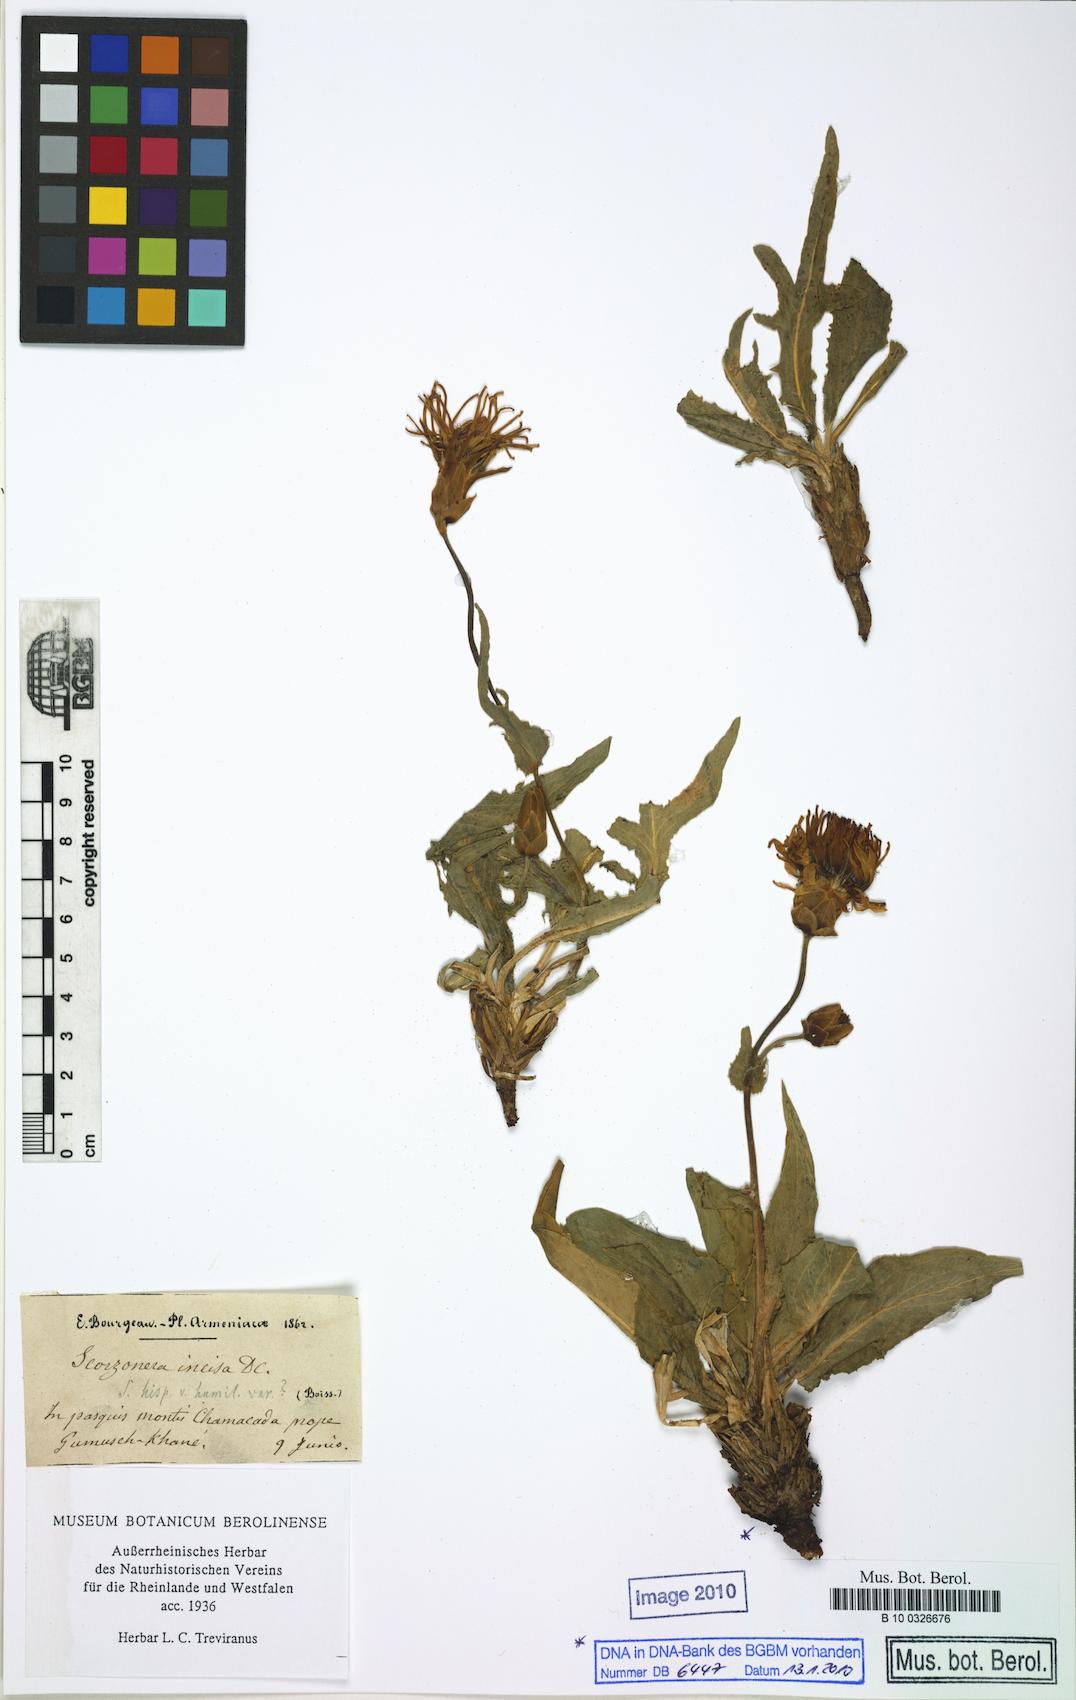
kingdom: Plantae
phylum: Tracheophyta
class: Magnoliopsida
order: Asterales
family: Asteraceae
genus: Aslia
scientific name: Aslia incisa
